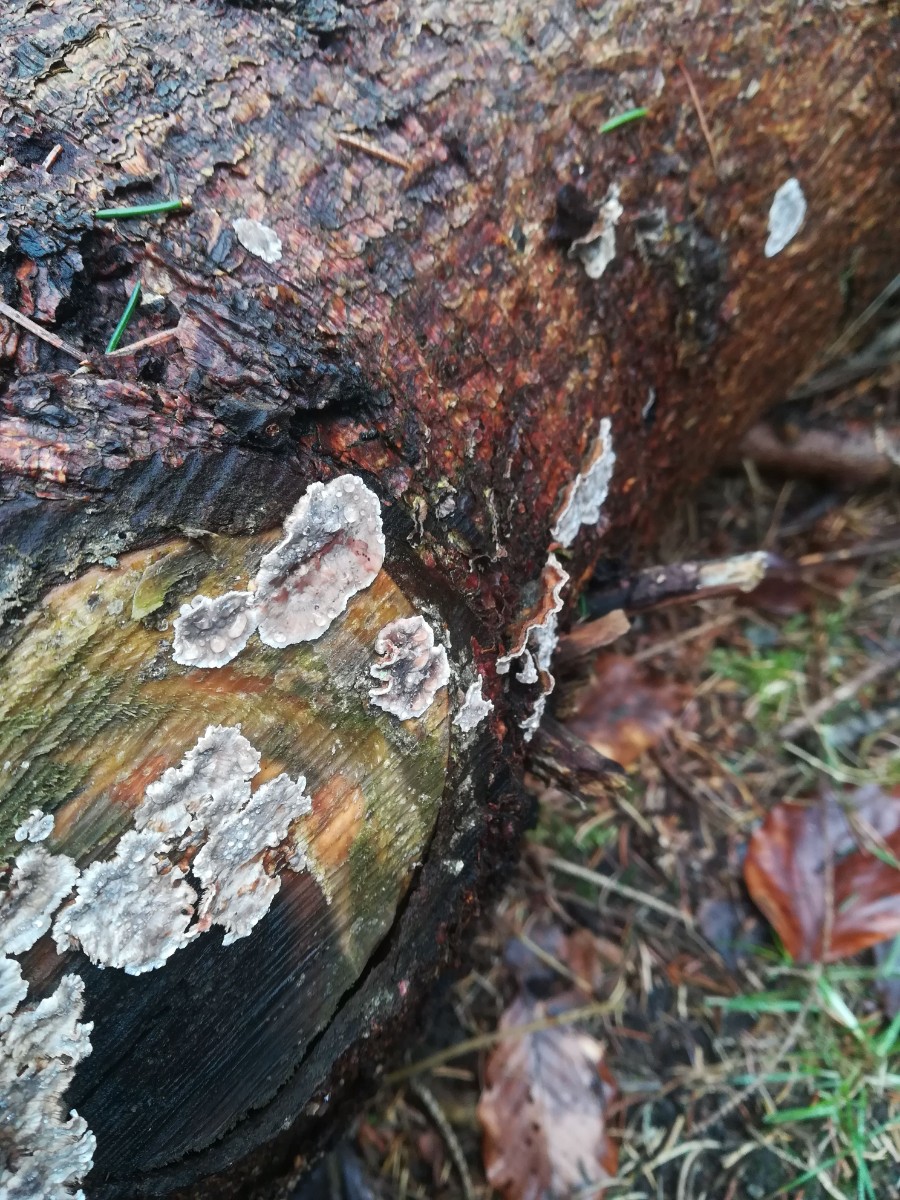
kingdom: Fungi
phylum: Basidiomycota
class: Agaricomycetes
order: Russulales
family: Stereaceae
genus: Stereum
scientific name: Stereum sanguinolentum
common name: blødende lædersvamp
